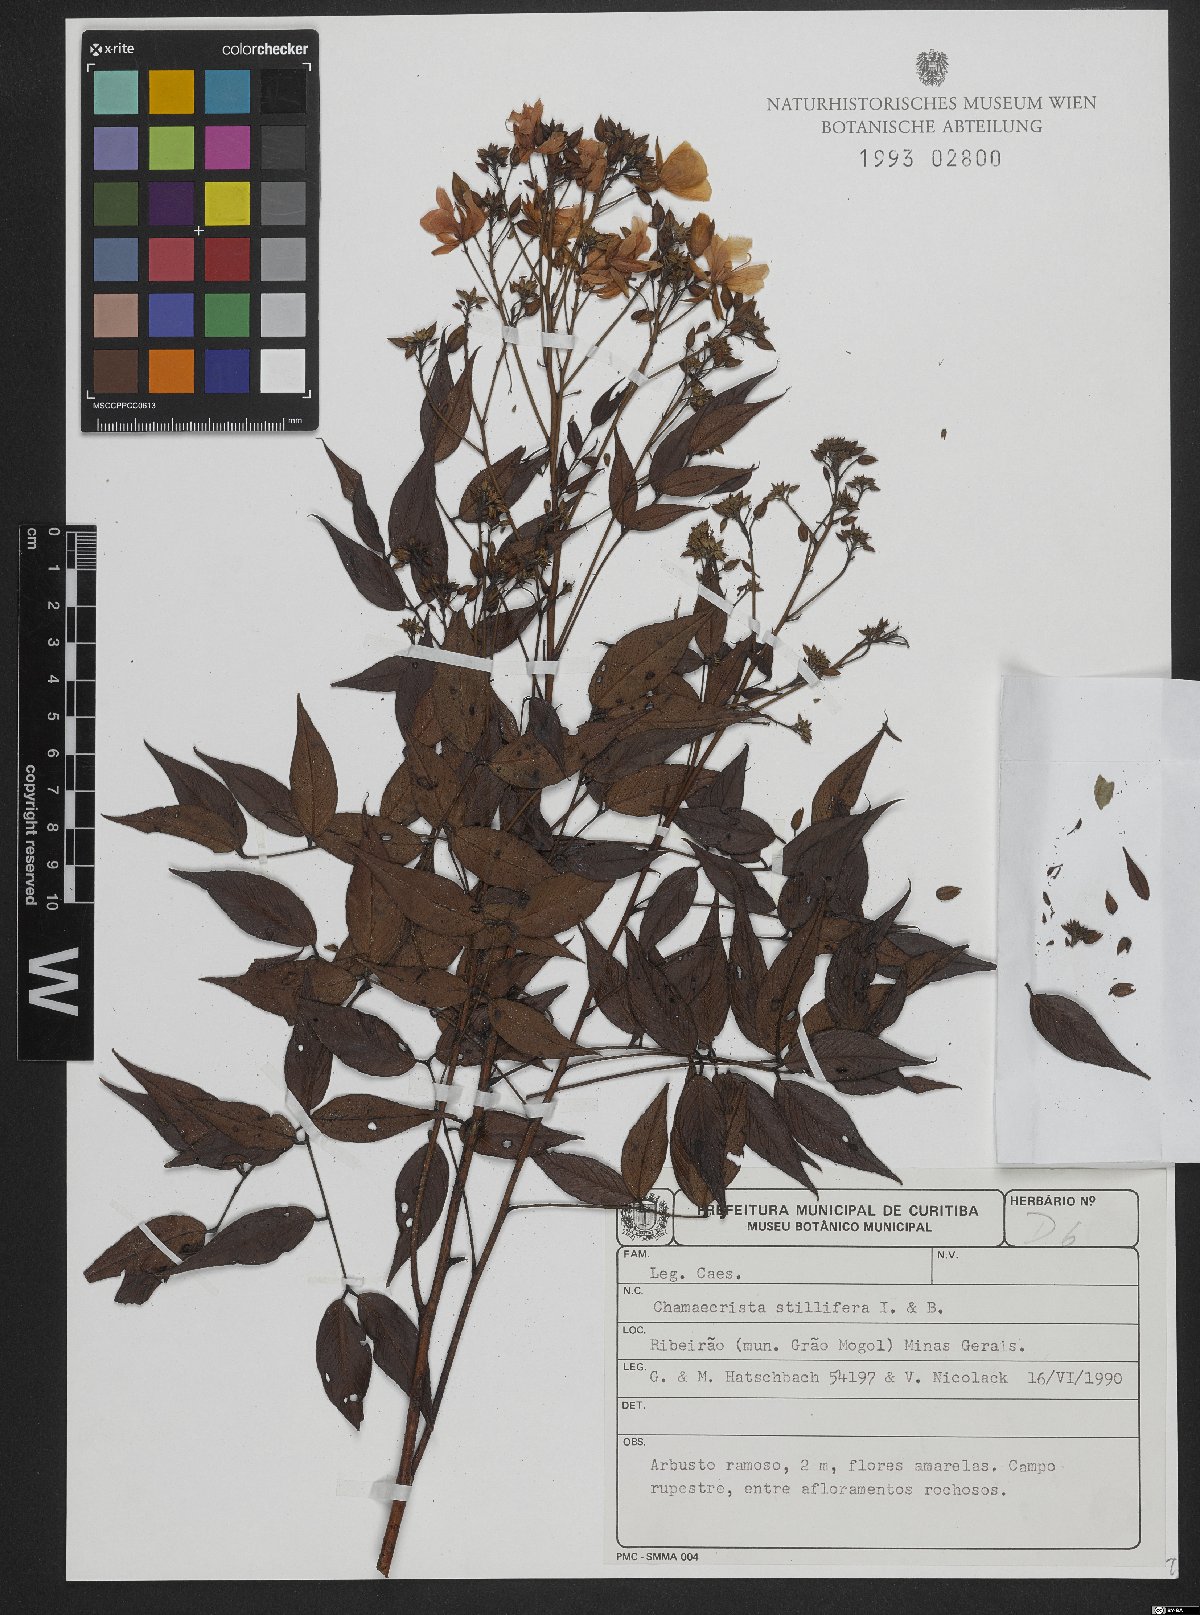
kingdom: Plantae
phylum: Tracheophyta
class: Magnoliopsida
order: Fabales
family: Fabaceae
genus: Chamaecrista
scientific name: Chamaecrista stillifera
